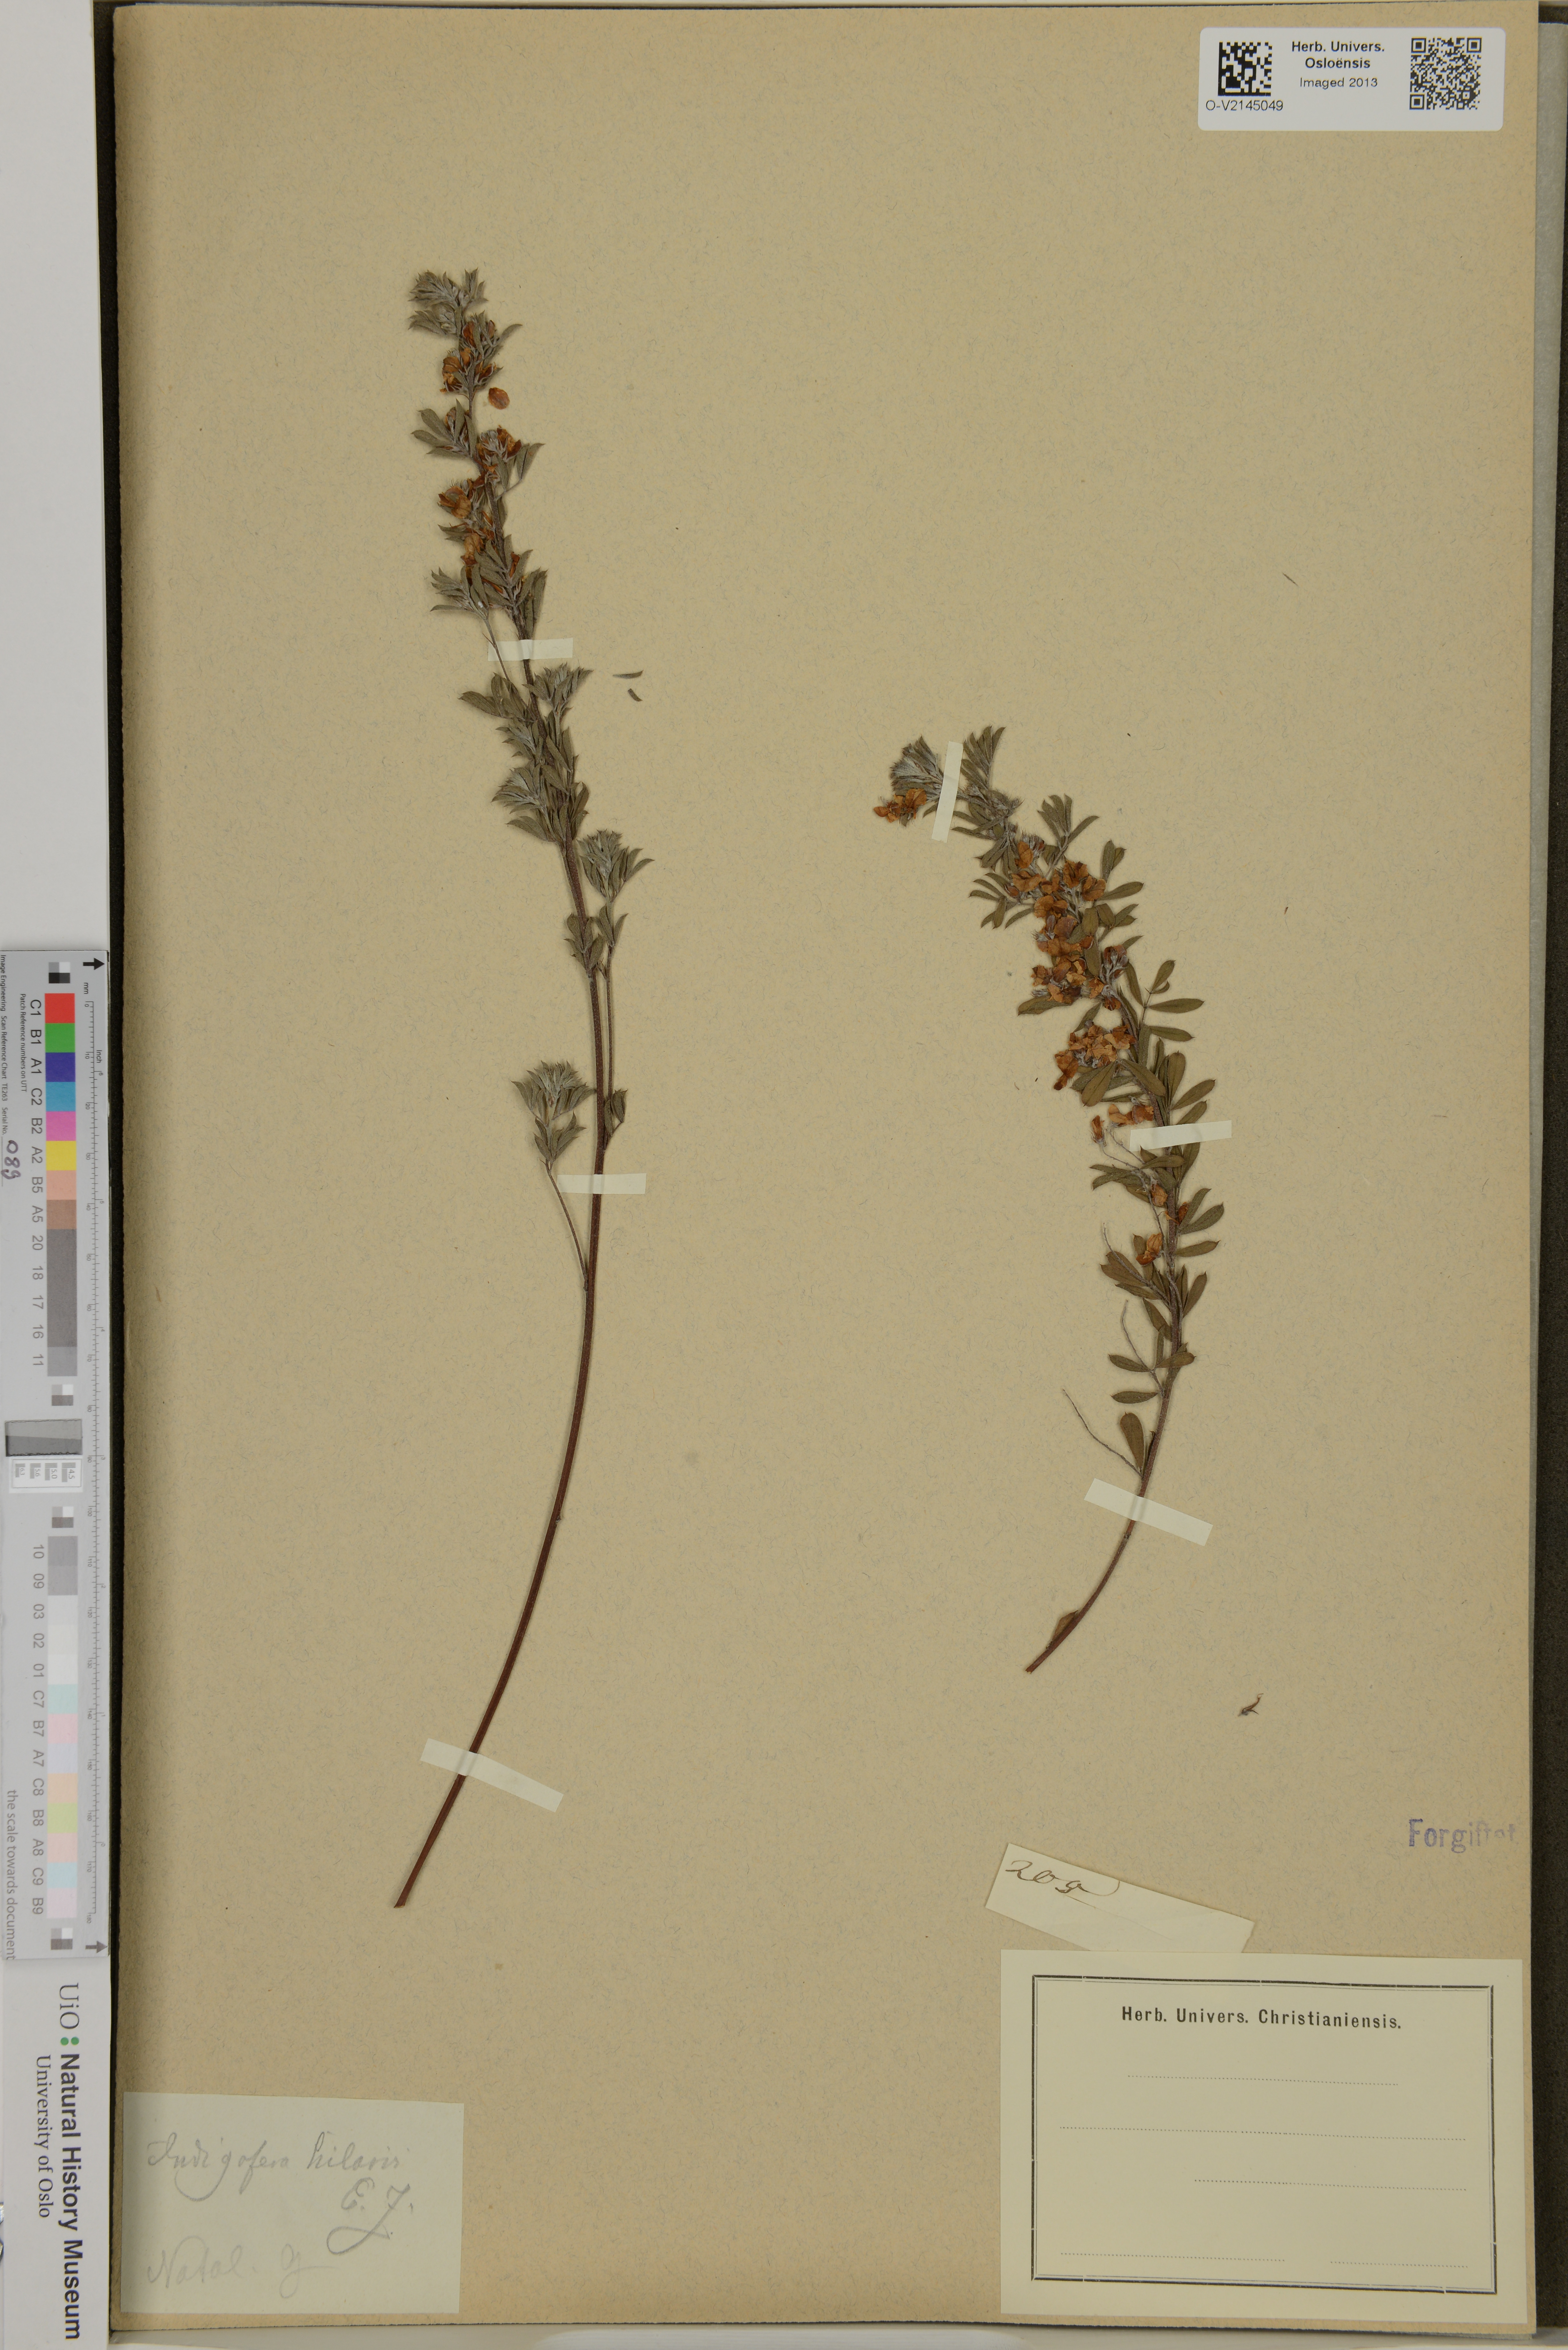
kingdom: Plantae
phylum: Tracheophyta
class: Magnoliopsida
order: Fabales
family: Fabaceae
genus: Indigofera
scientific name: Indigofera hilaris
